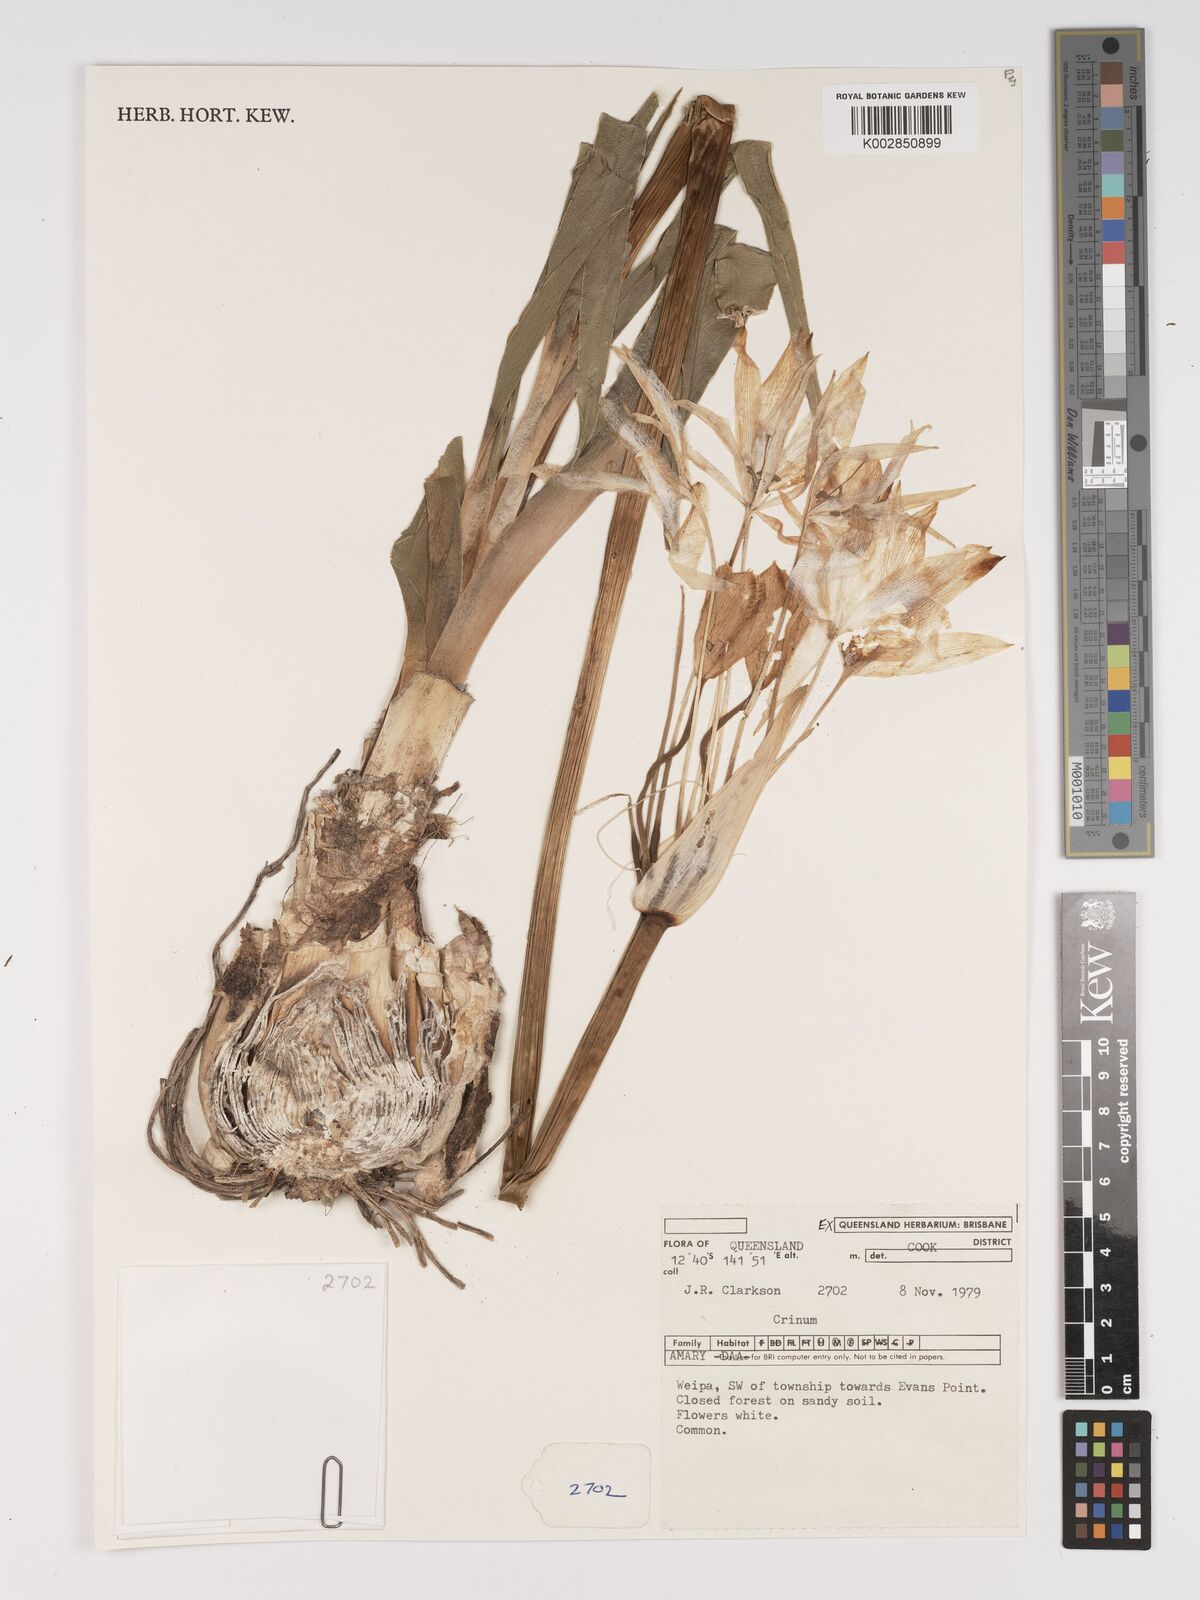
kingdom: Plantae
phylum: Tracheophyta
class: Liliopsida
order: Asparagales
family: Amaryllidaceae
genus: Crinum
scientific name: Crinum
